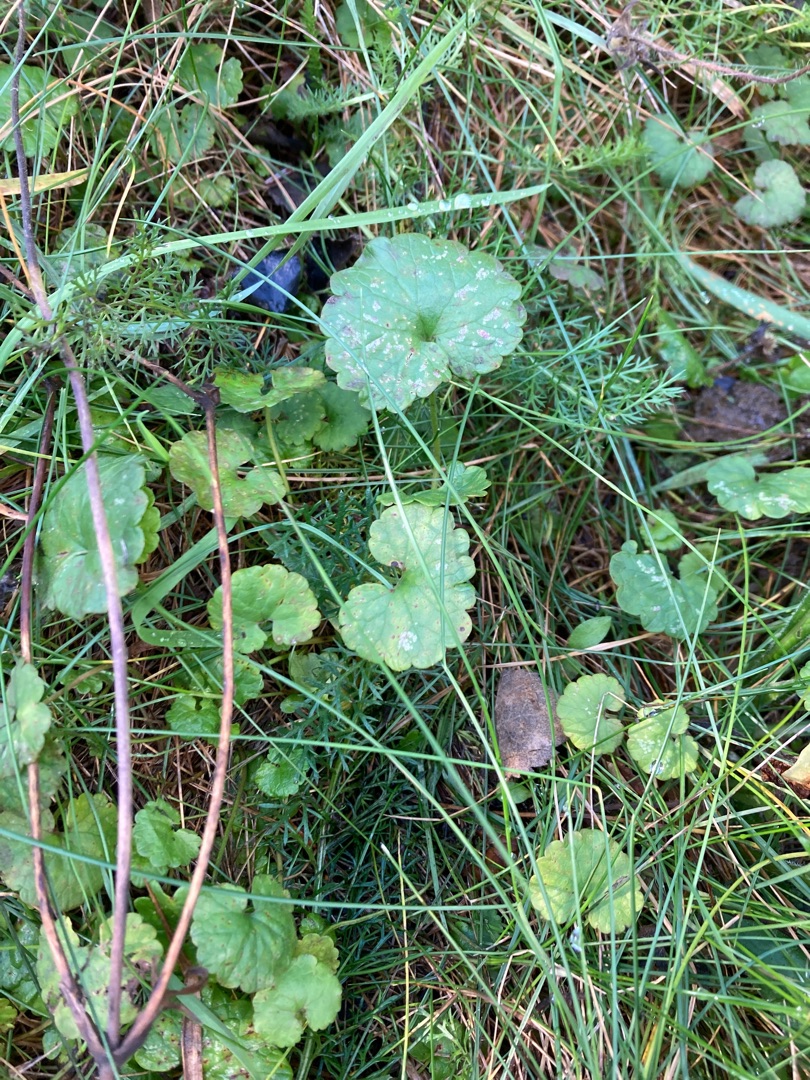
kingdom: Plantae
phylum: Tracheophyta
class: Magnoliopsida
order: Lamiales
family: Lamiaceae
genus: Glechoma
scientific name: Glechoma hederacea
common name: Korsknap
